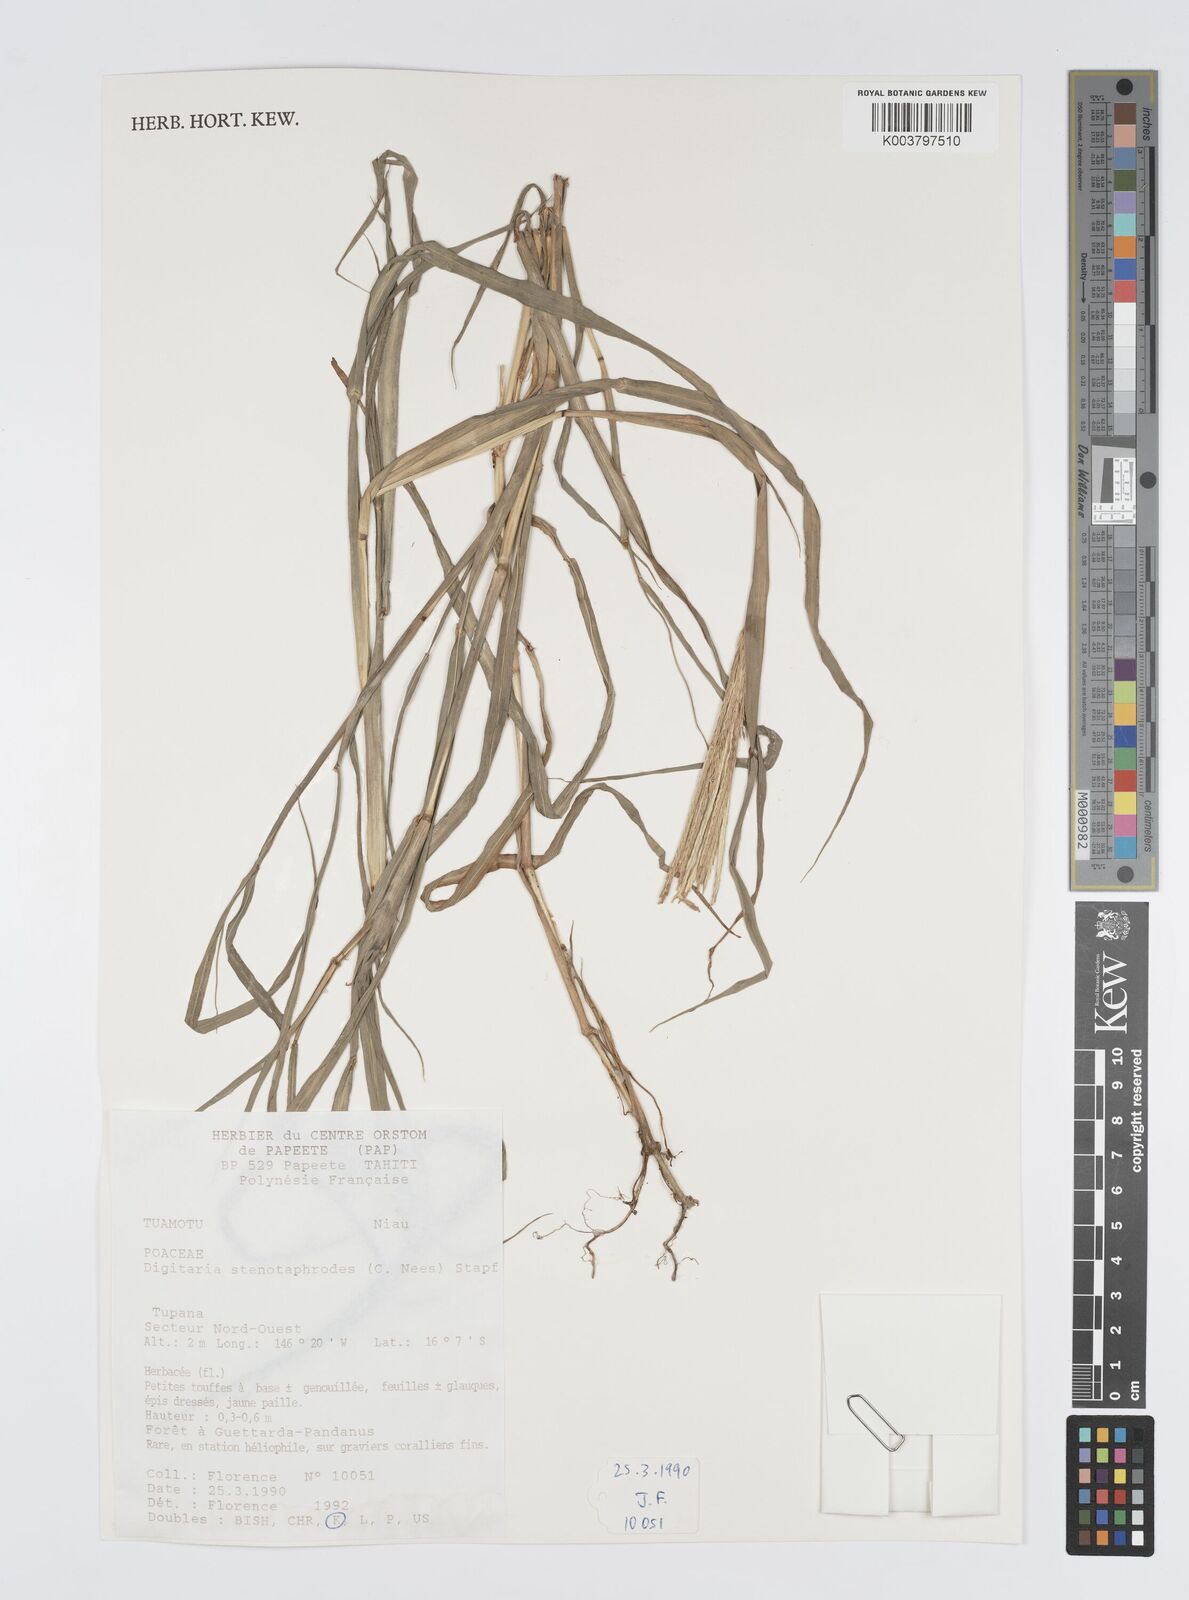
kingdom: Plantae
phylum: Tracheophyta
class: Liliopsida
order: Poales
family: Poaceae
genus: Digitaria
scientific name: Digitaria stenotaphrodes
